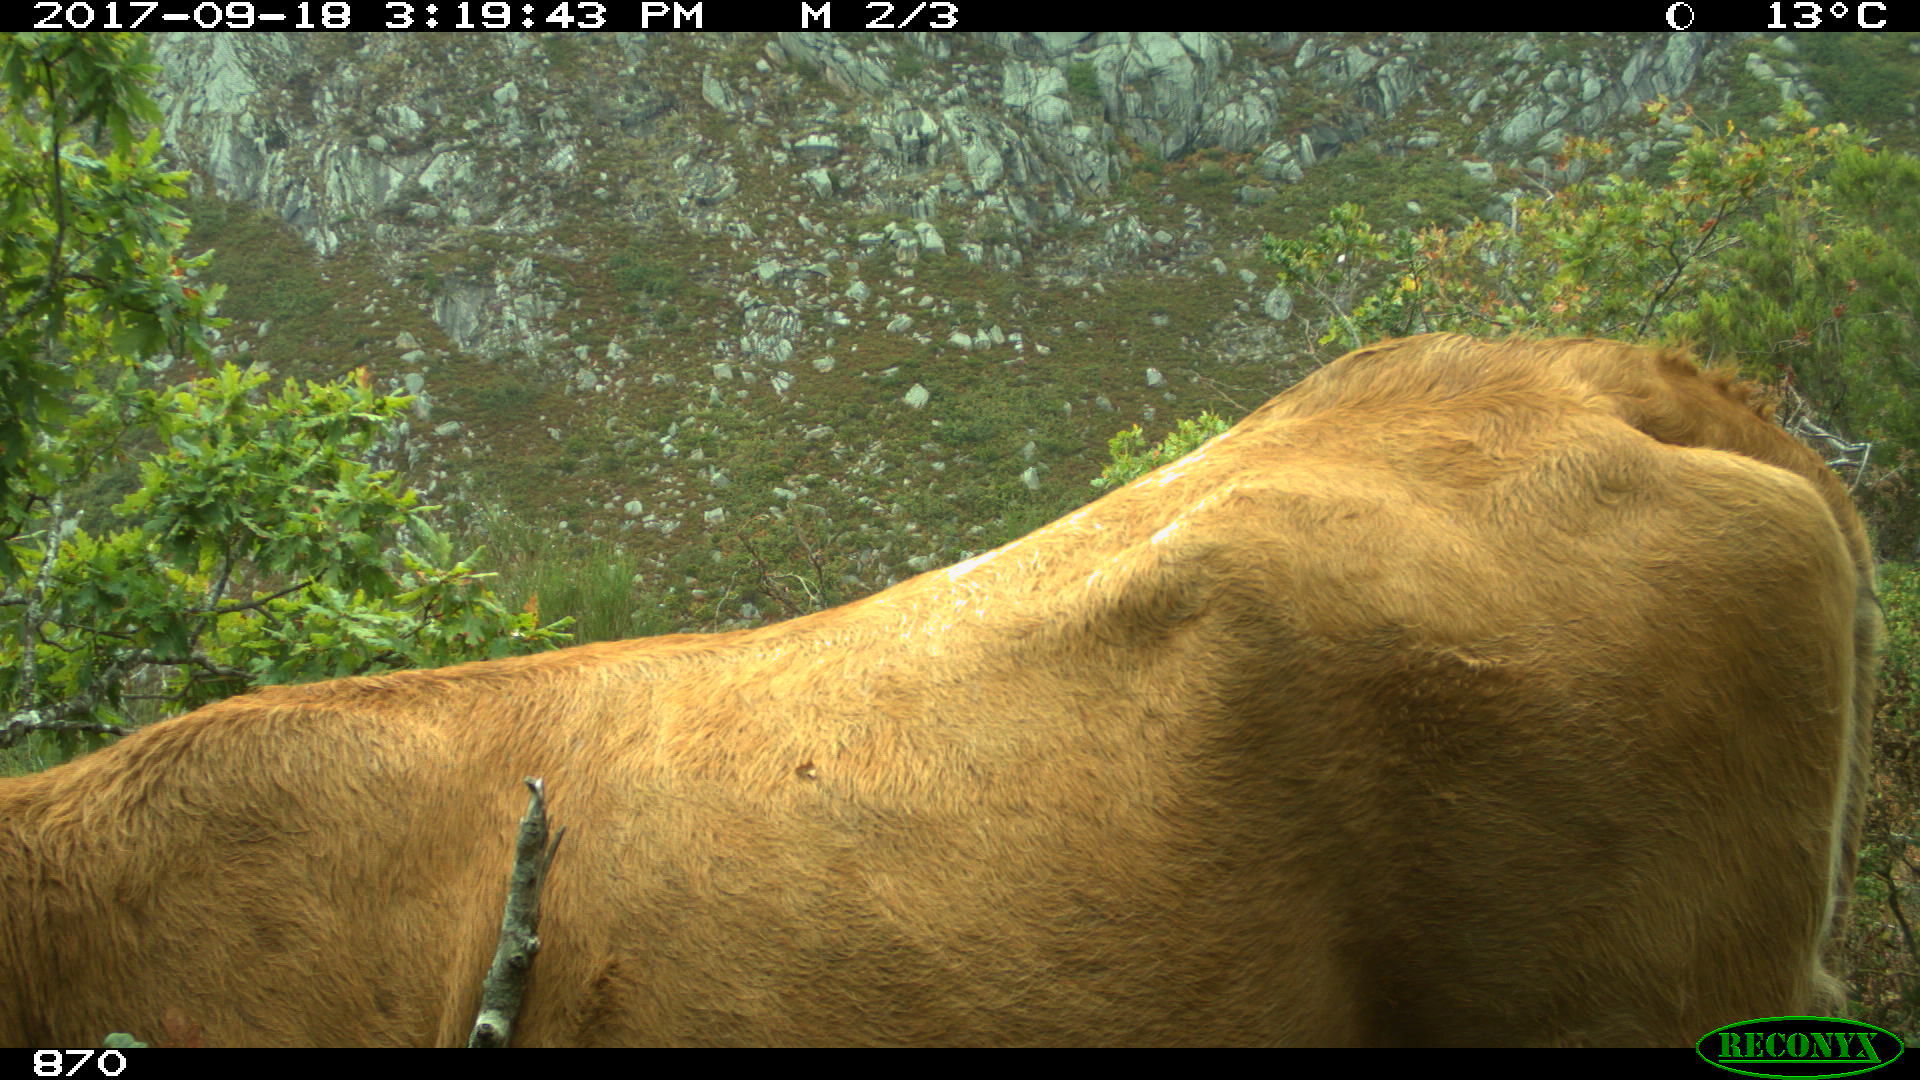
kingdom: Animalia
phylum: Chordata
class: Mammalia
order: Artiodactyla
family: Bovidae
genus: Bos
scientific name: Bos taurus
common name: Domesticated cattle
